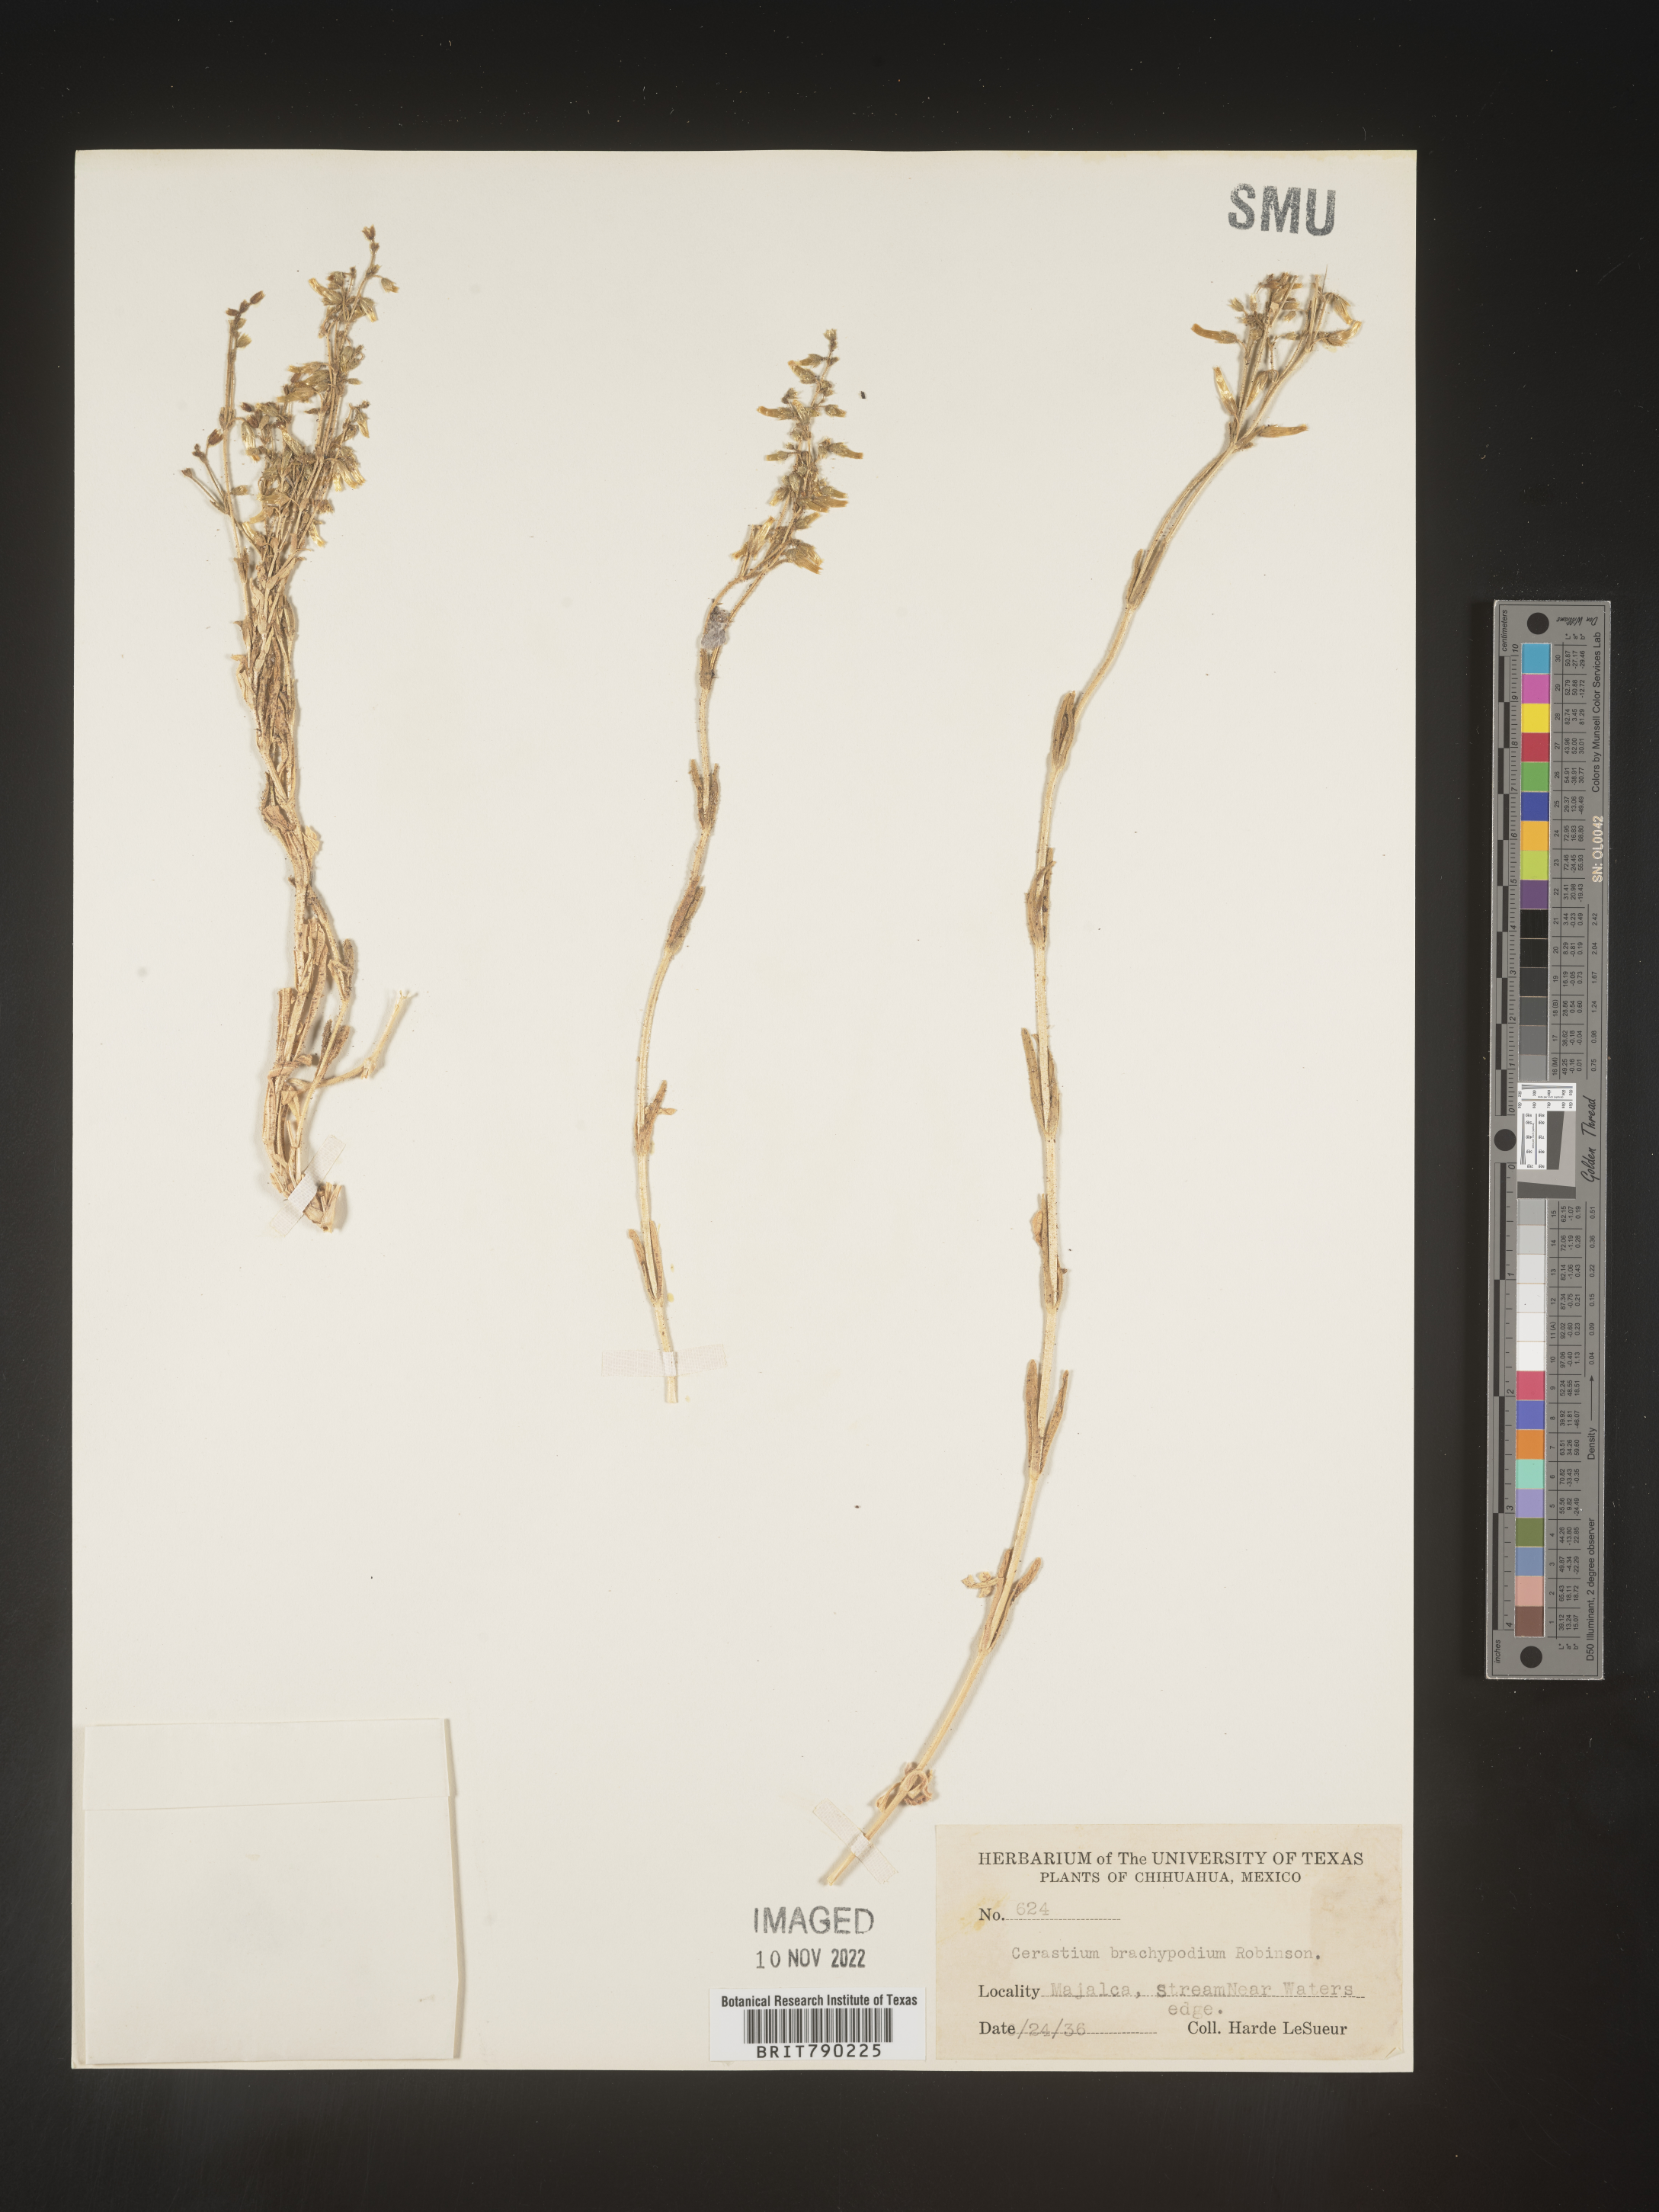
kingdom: Plantae
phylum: Tracheophyta
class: Magnoliopsida
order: Caryophyllales
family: Caryophyllaceae
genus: Cerastium
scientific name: Cerastium
